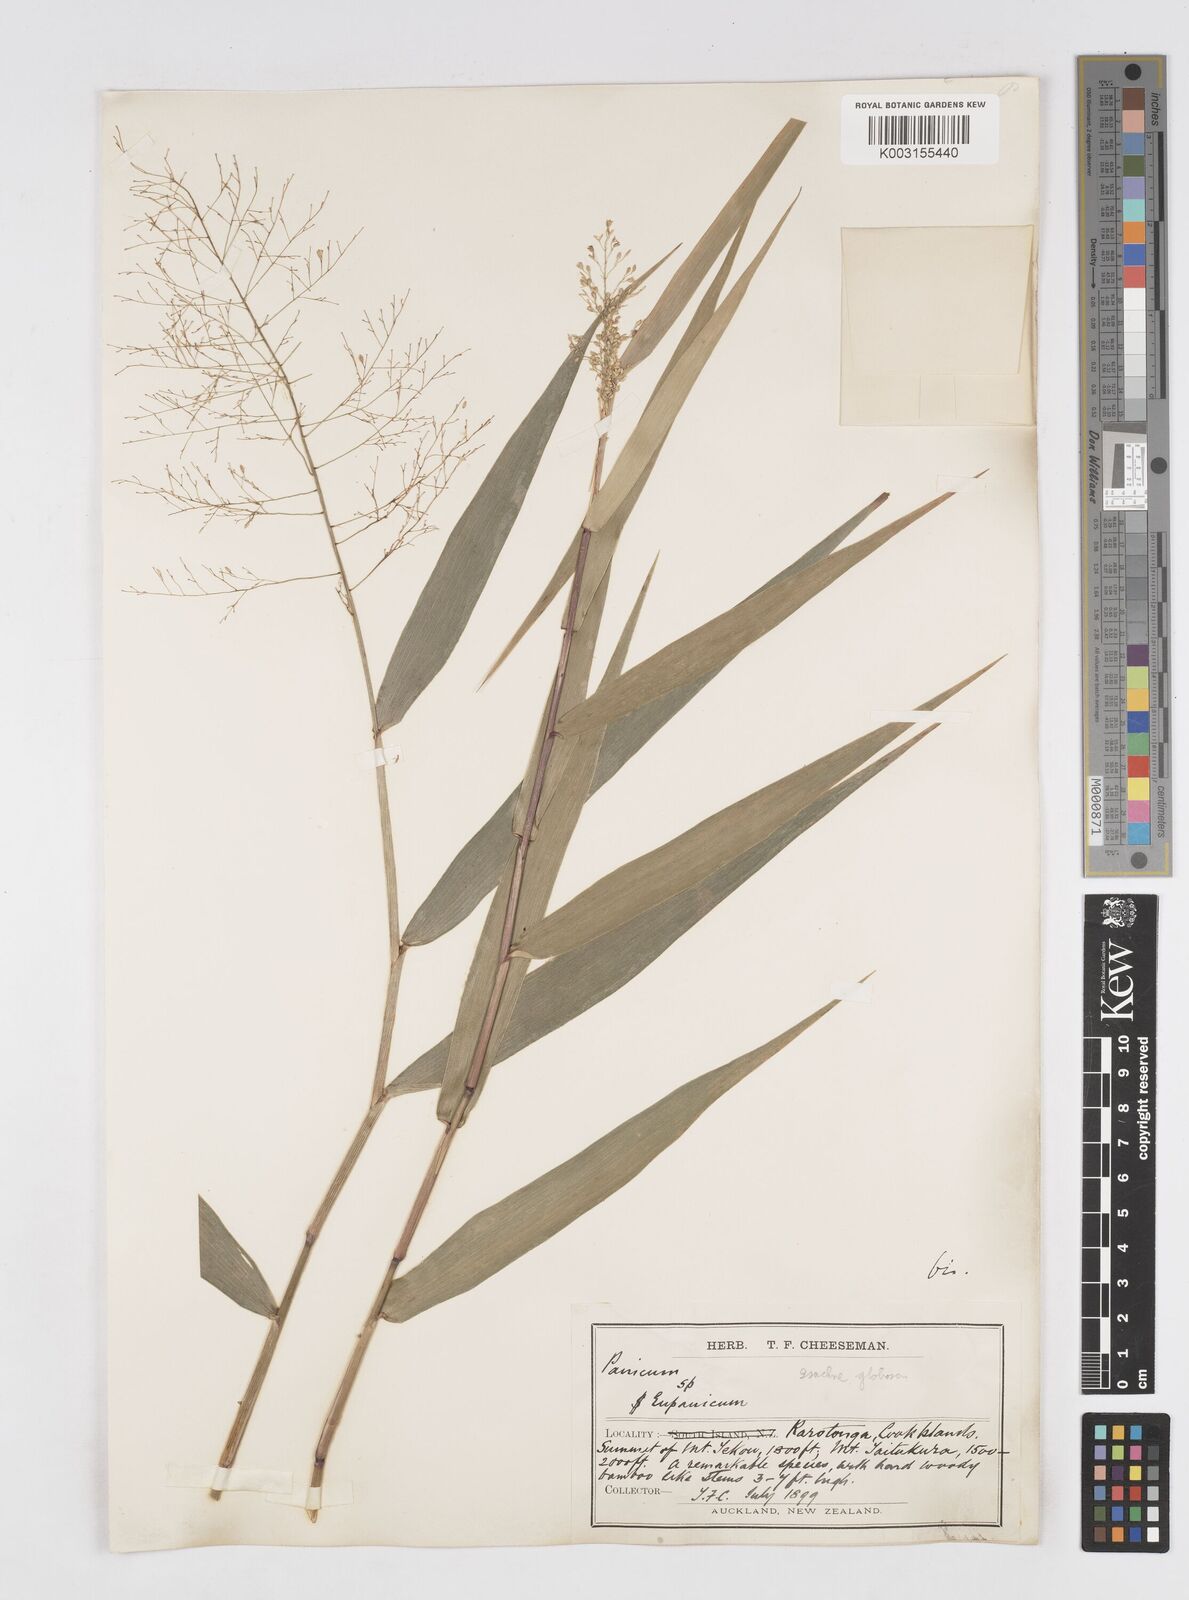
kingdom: Plantae
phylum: Tracheophyta
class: Liliopsida
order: Poales
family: Poaceae
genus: Isachne
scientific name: Isachne globosa
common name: Swamp millet
